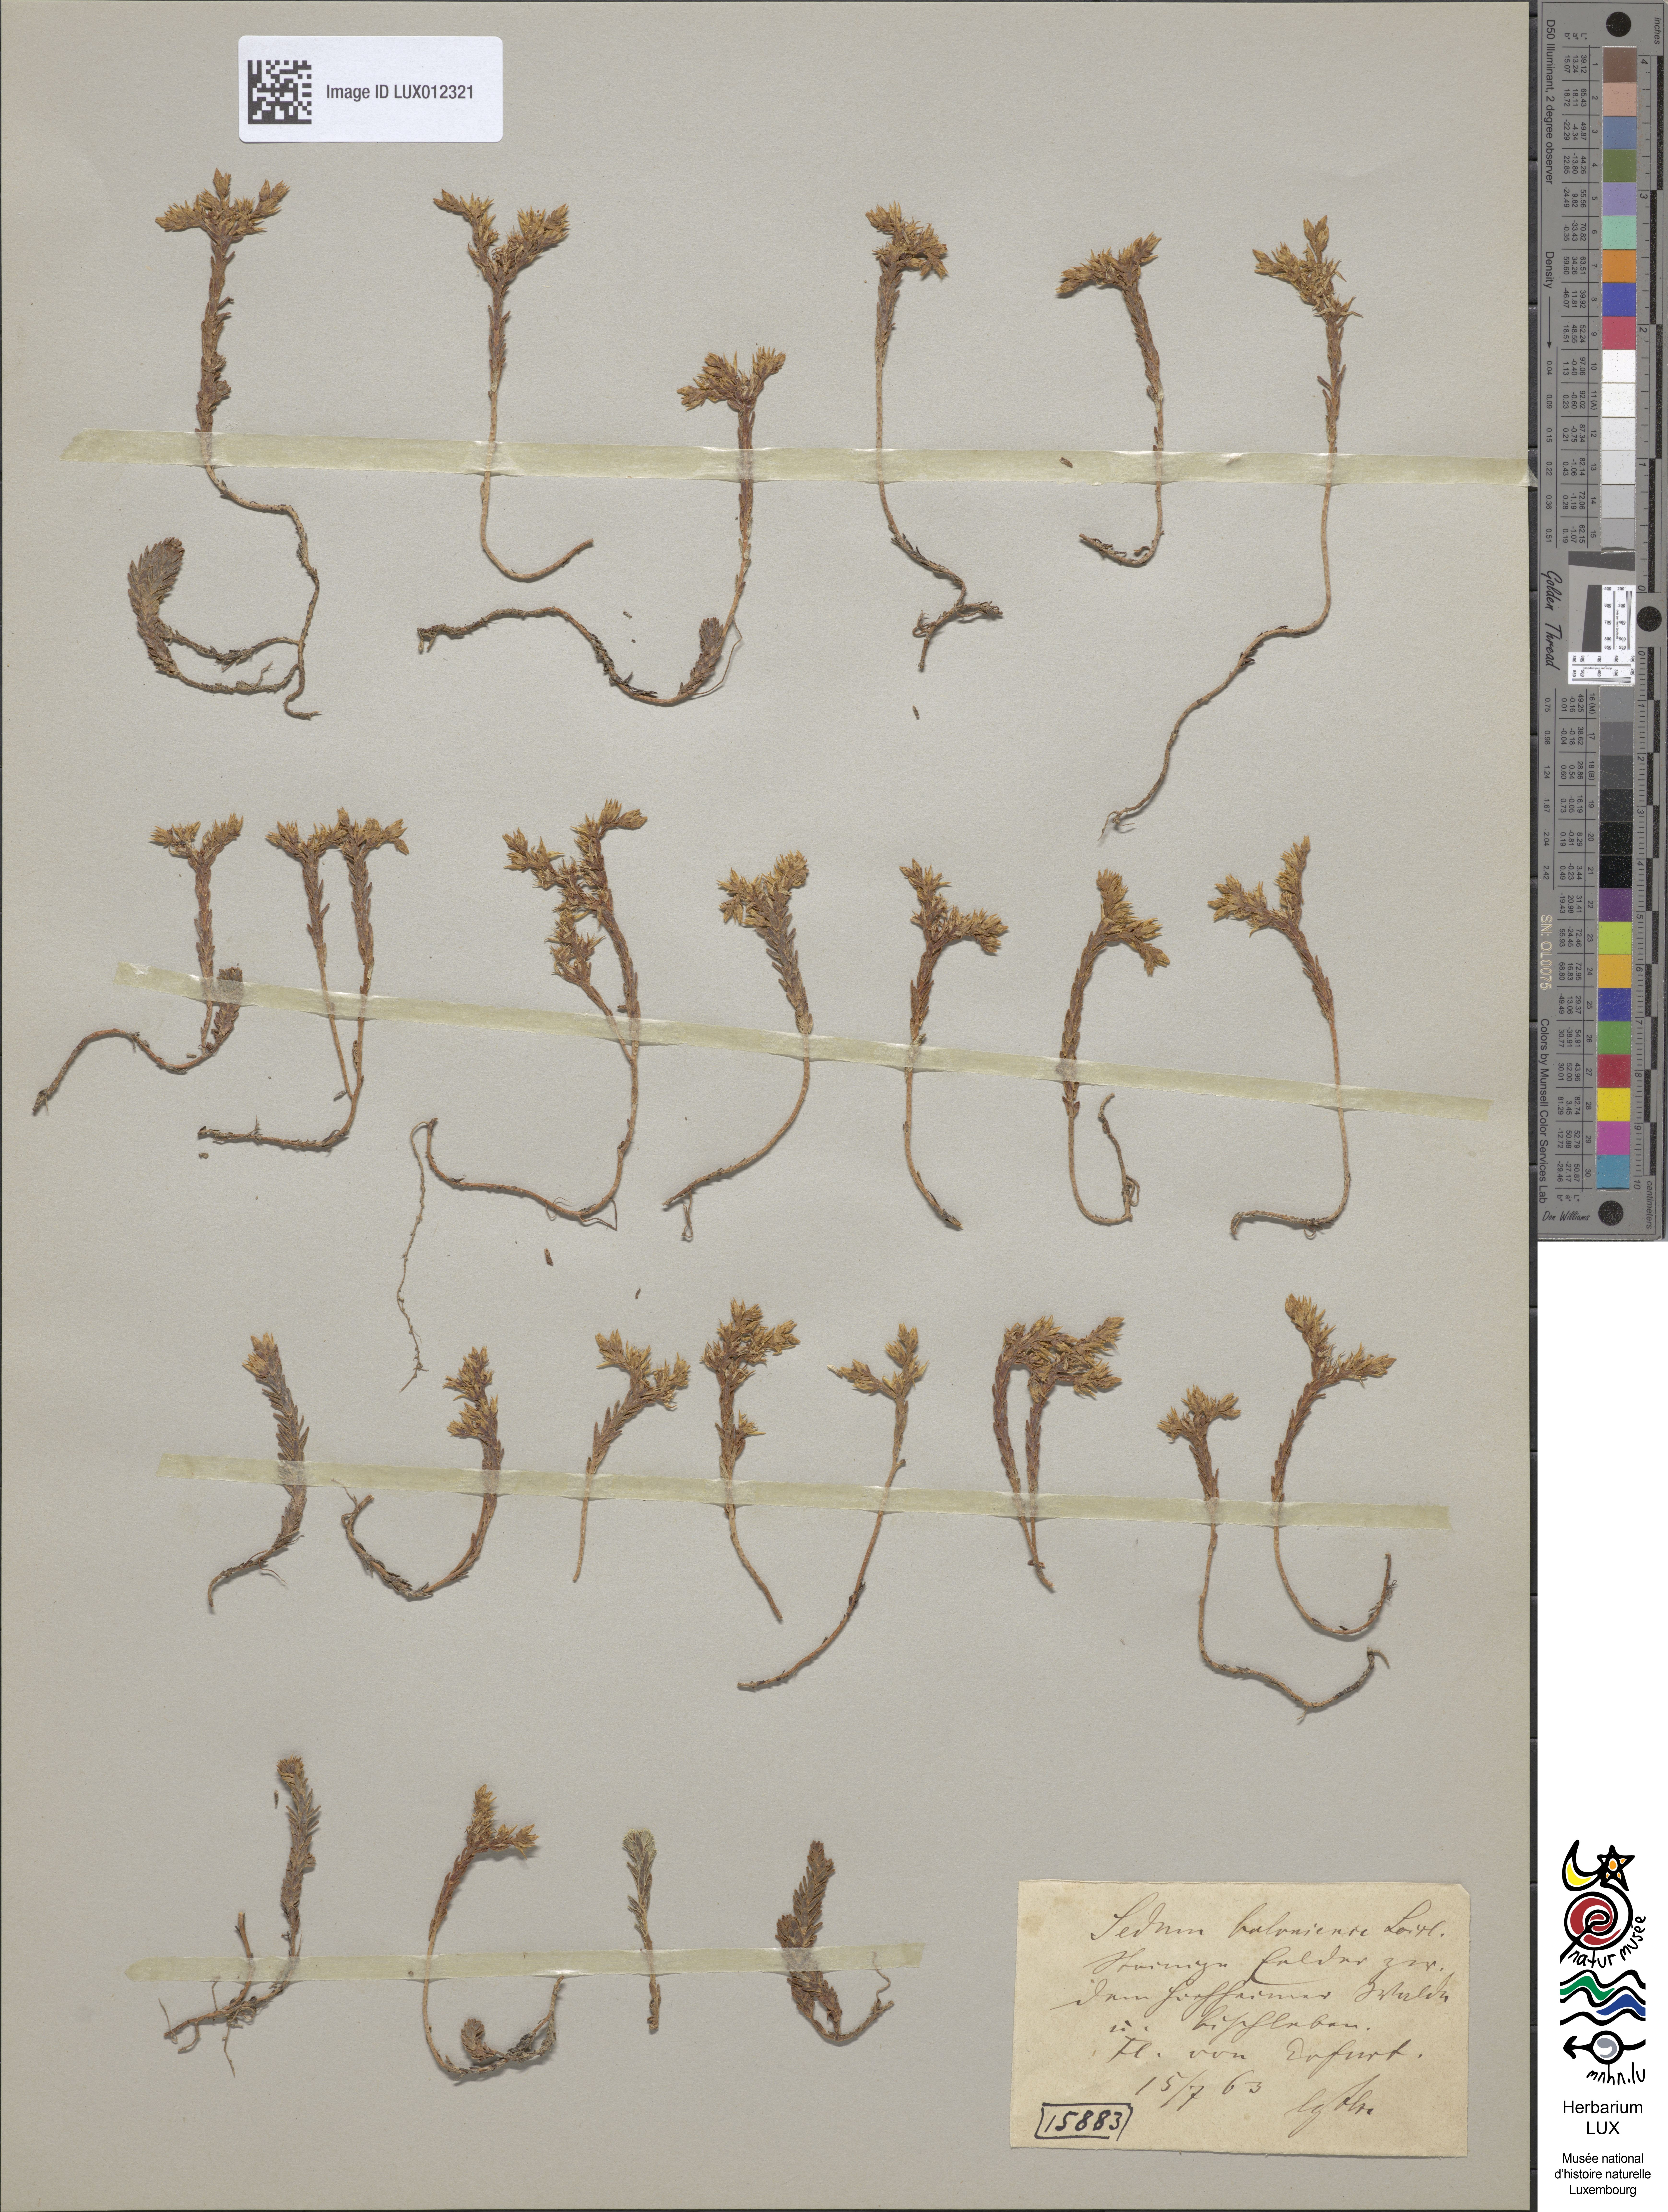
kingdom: Plantae
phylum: Tracheophyta
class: Magnoliopsida
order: Saxifragales
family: Crassulaceae
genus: Sedum
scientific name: Sedum sexangulare
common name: Tasteless stonecrop
